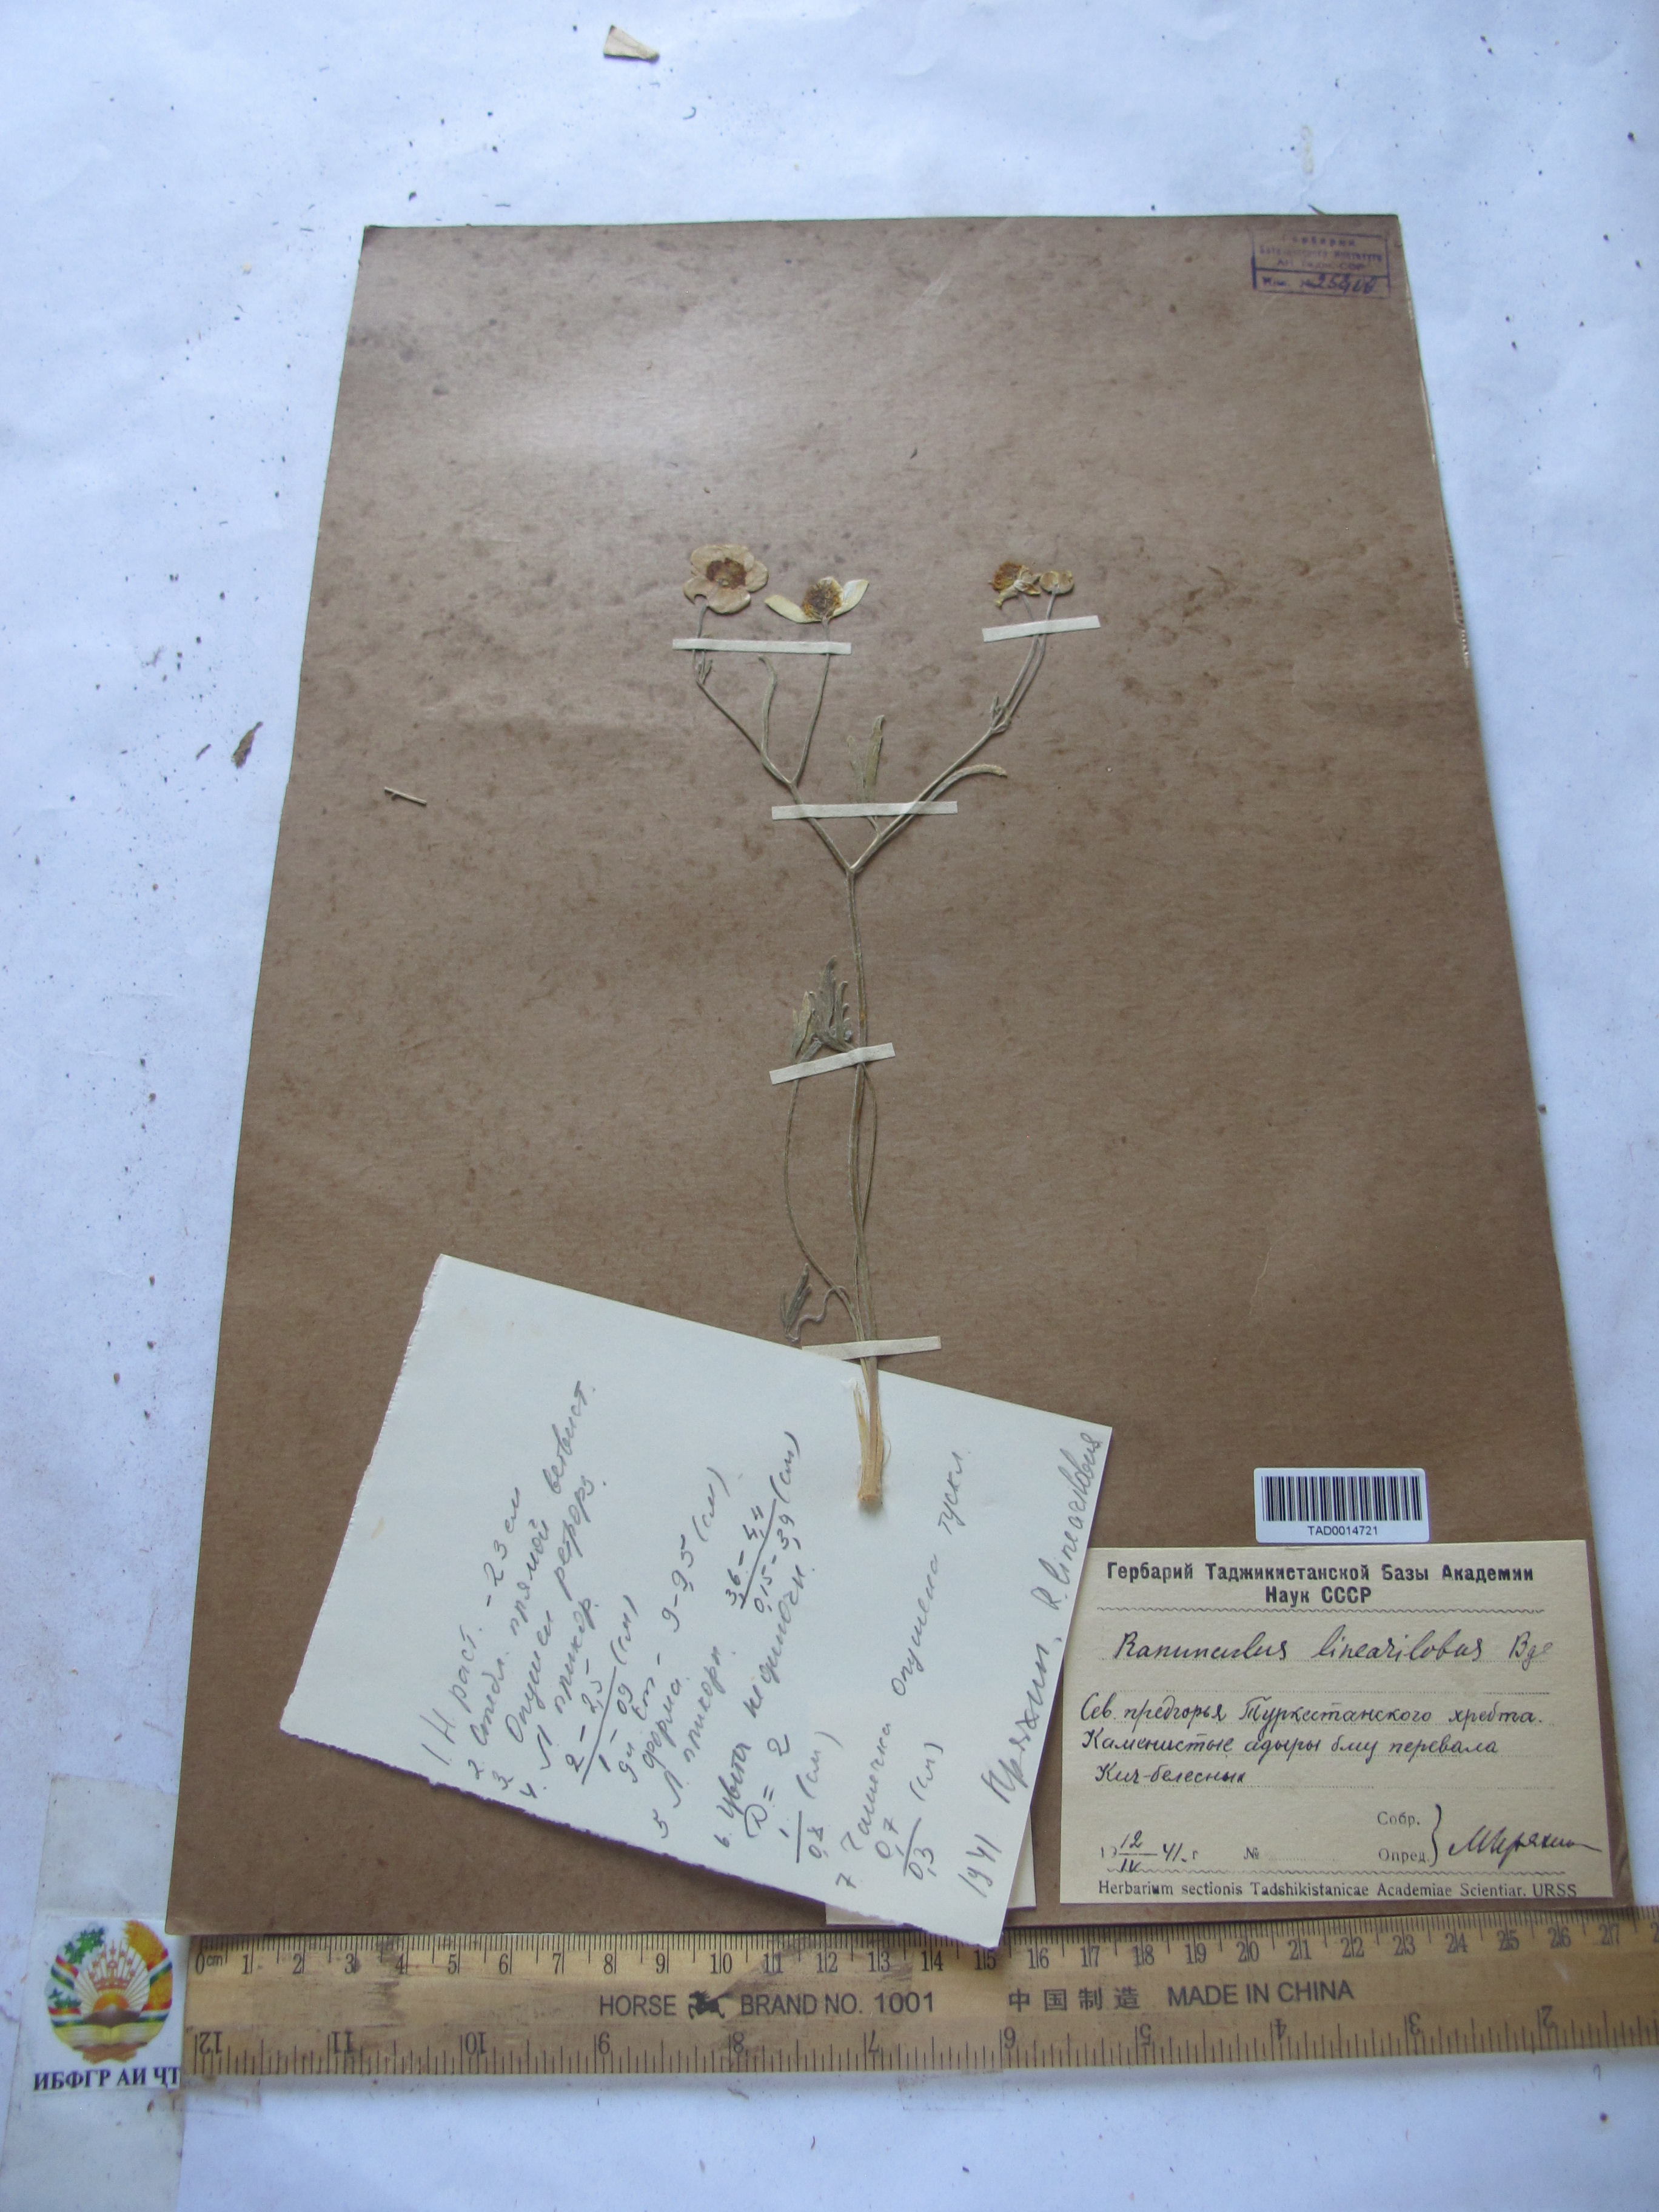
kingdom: Plantae
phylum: Tracheophyta
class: Magnoliopsida
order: Ranunculales
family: Ranunculaceae
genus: Ranunculus
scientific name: Ranunculus linearilobus
